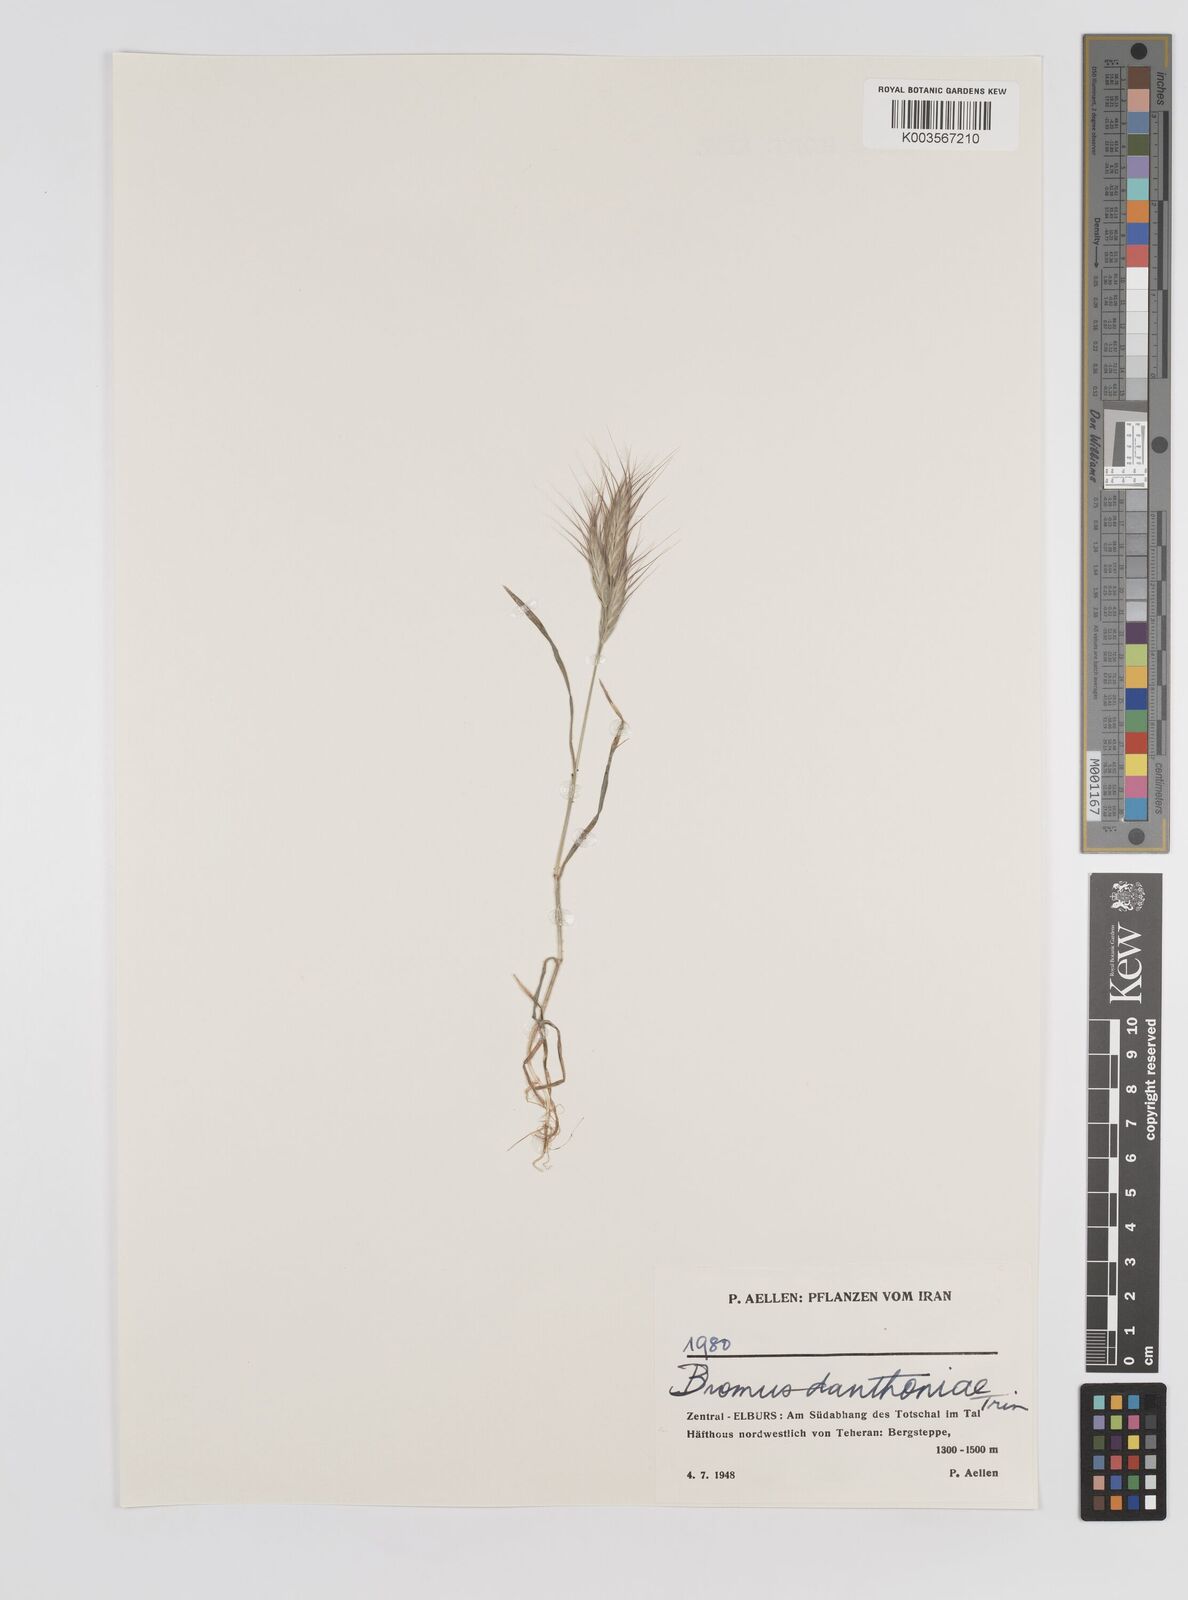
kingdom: Plantae
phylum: Tracheophyta
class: Liliopsida
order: Poales
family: Poaceae
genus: Bromus
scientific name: Bromus danthoniae
